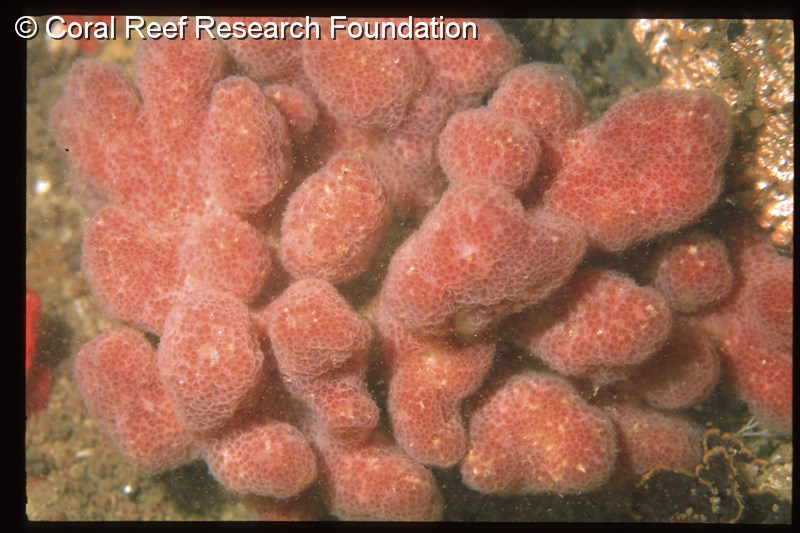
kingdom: Animalia
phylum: Chordata
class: Ascidiacea
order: Aplousobranchia
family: Pseudodistomidae
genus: Pseudodistoma
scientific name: Pseudodistoma
